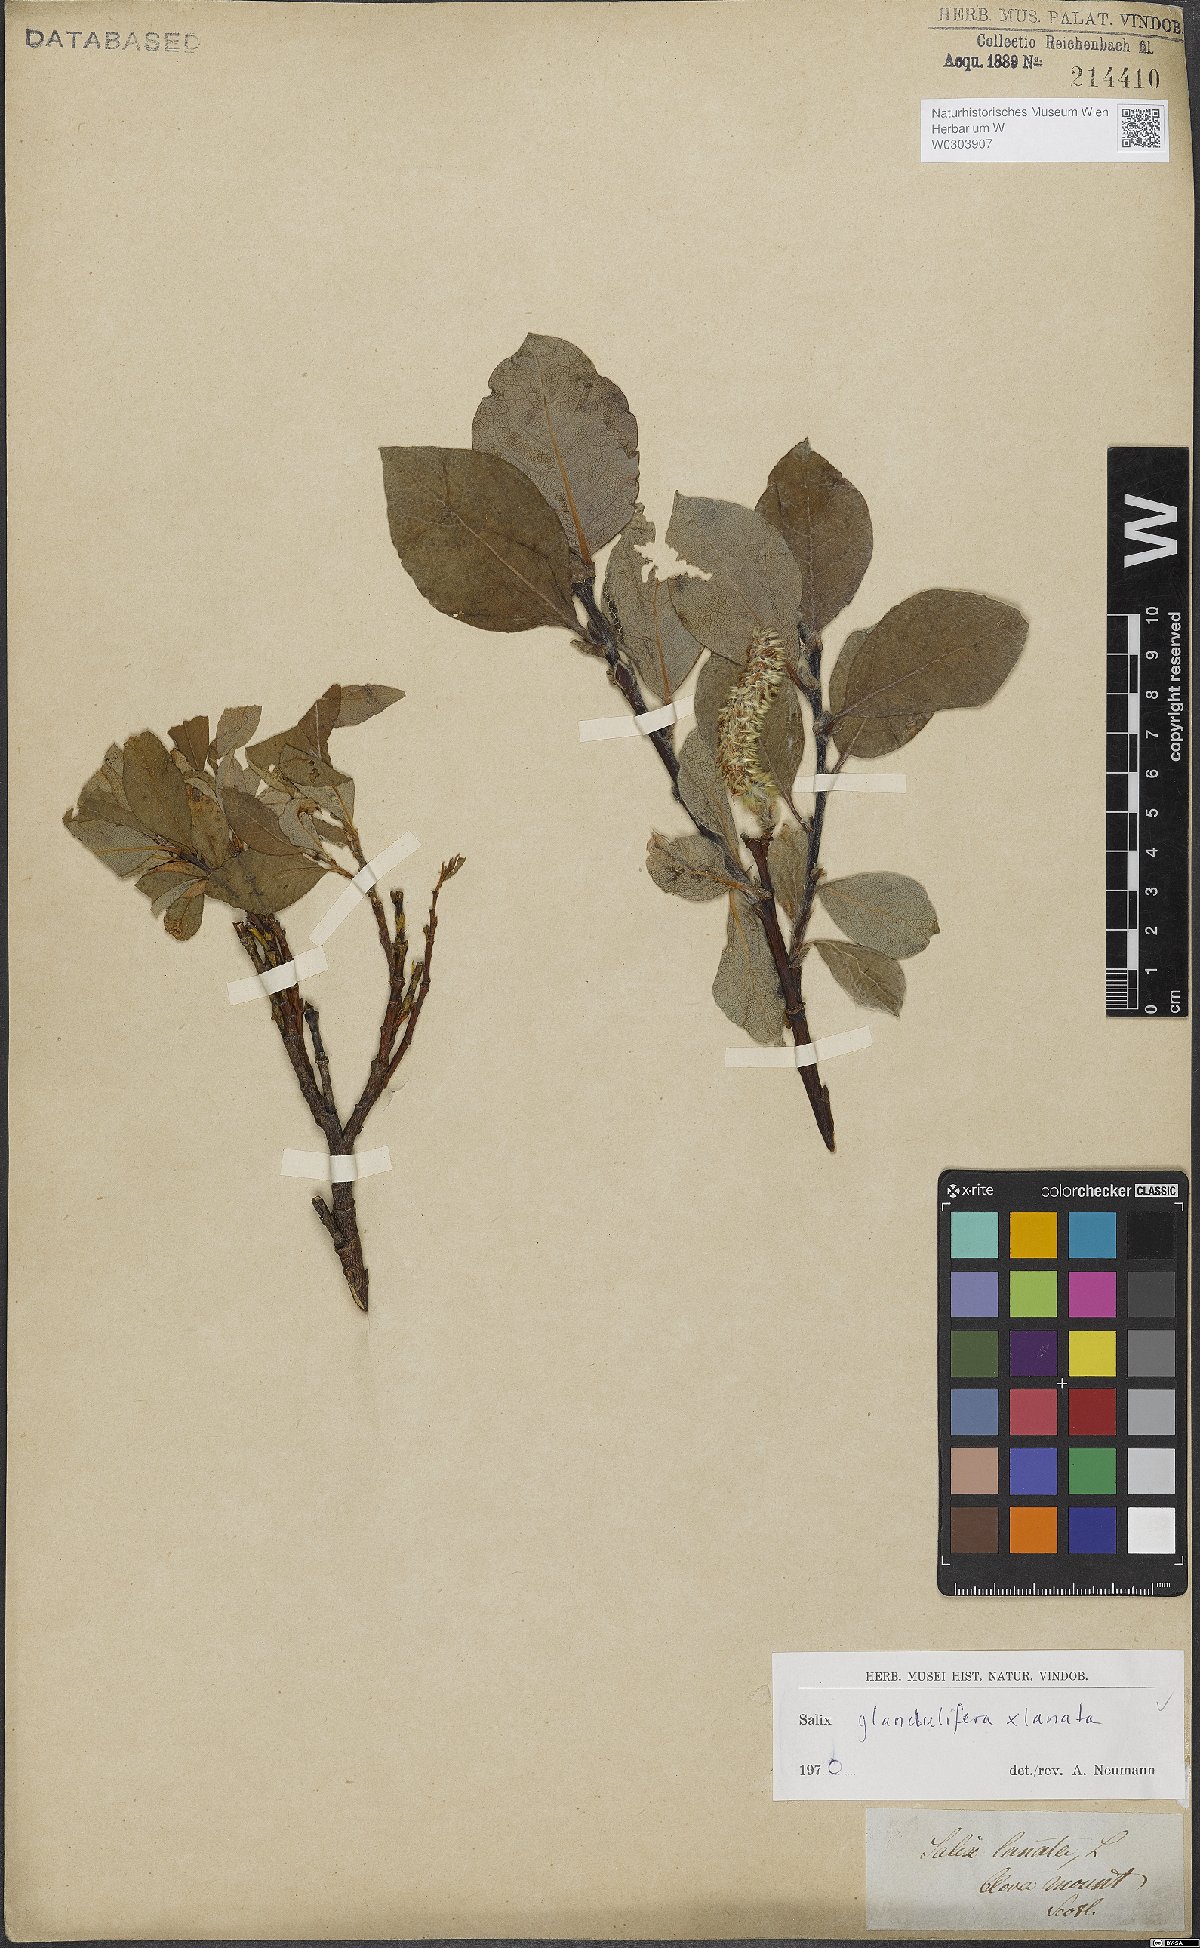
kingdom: Plantae
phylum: Tracheophyta
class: Magnoliopsida
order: Malpighiales
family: Salicaceae
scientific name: Salicaceae
